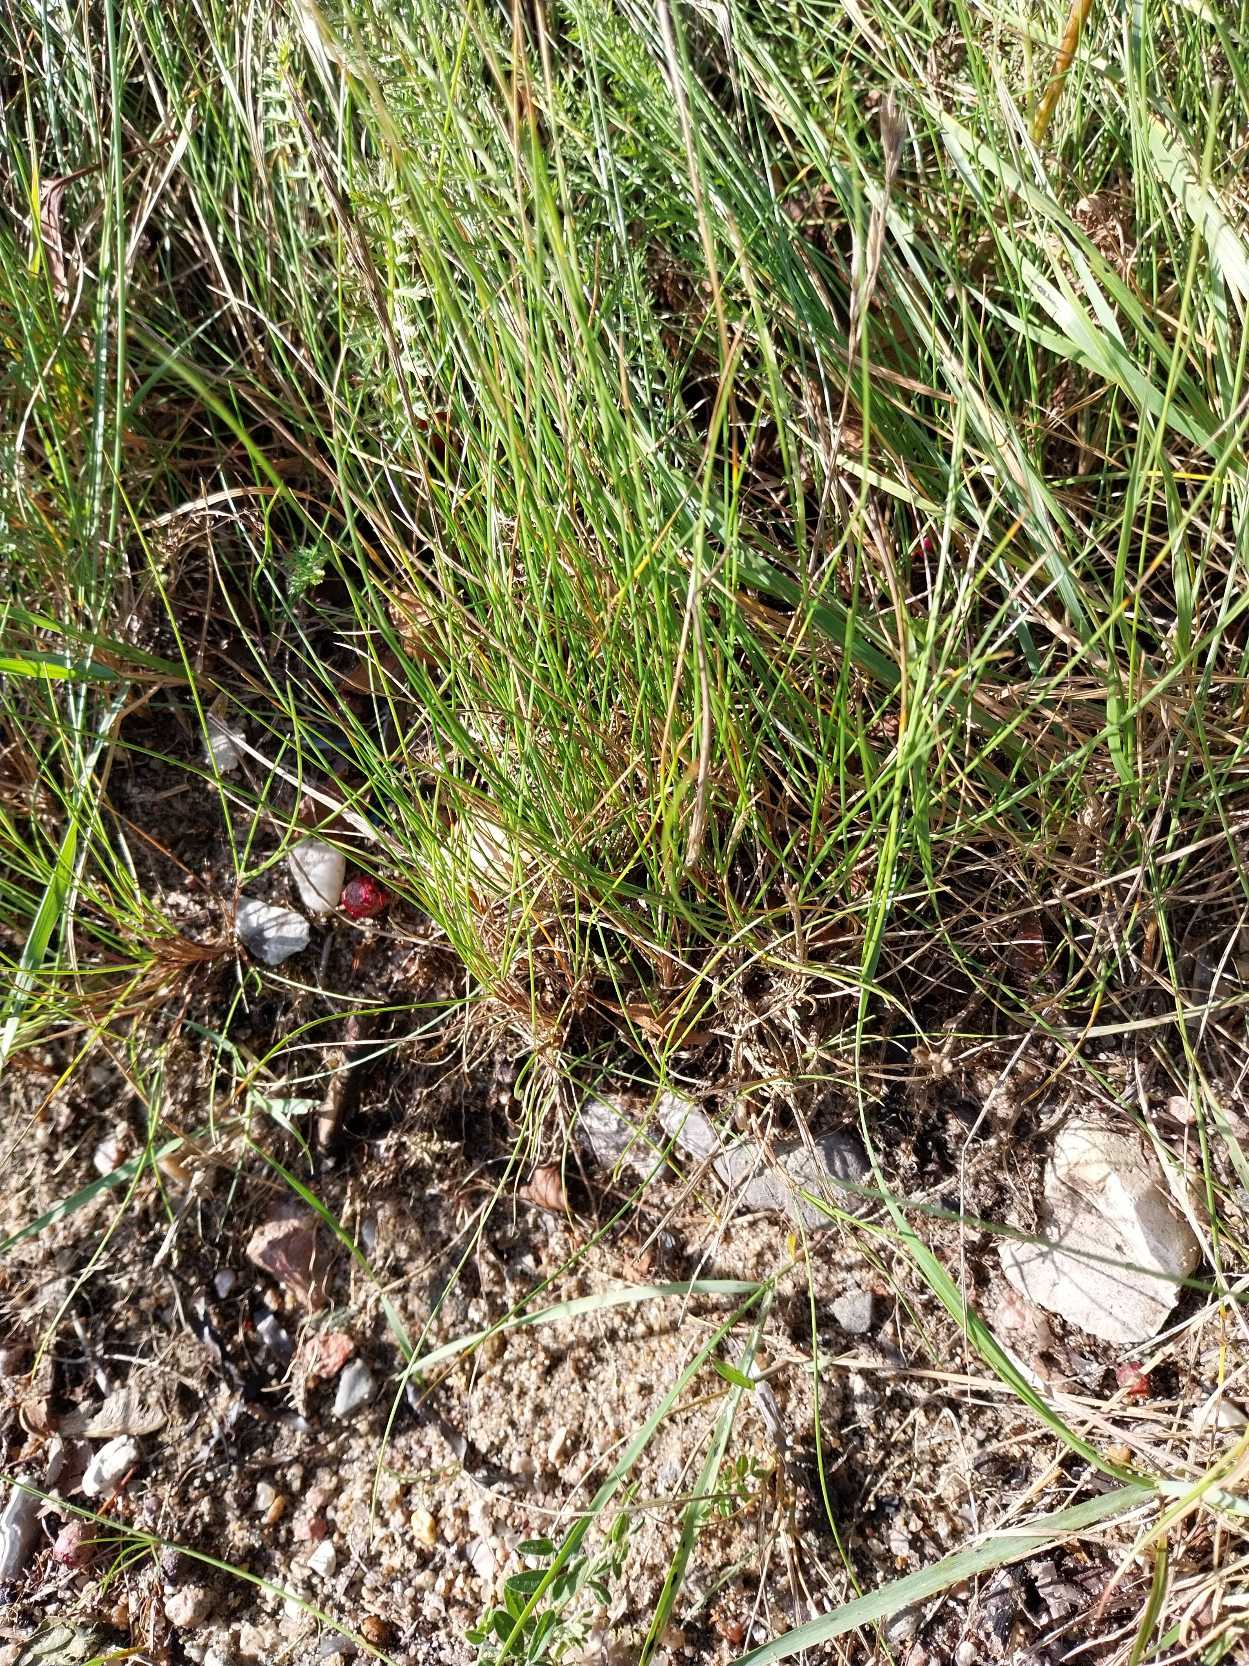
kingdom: Plantae
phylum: Tracheophyta
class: Liliopsida
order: Poales
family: Poaceae
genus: Festuca
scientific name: Festuca rubra
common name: Rød svingel
